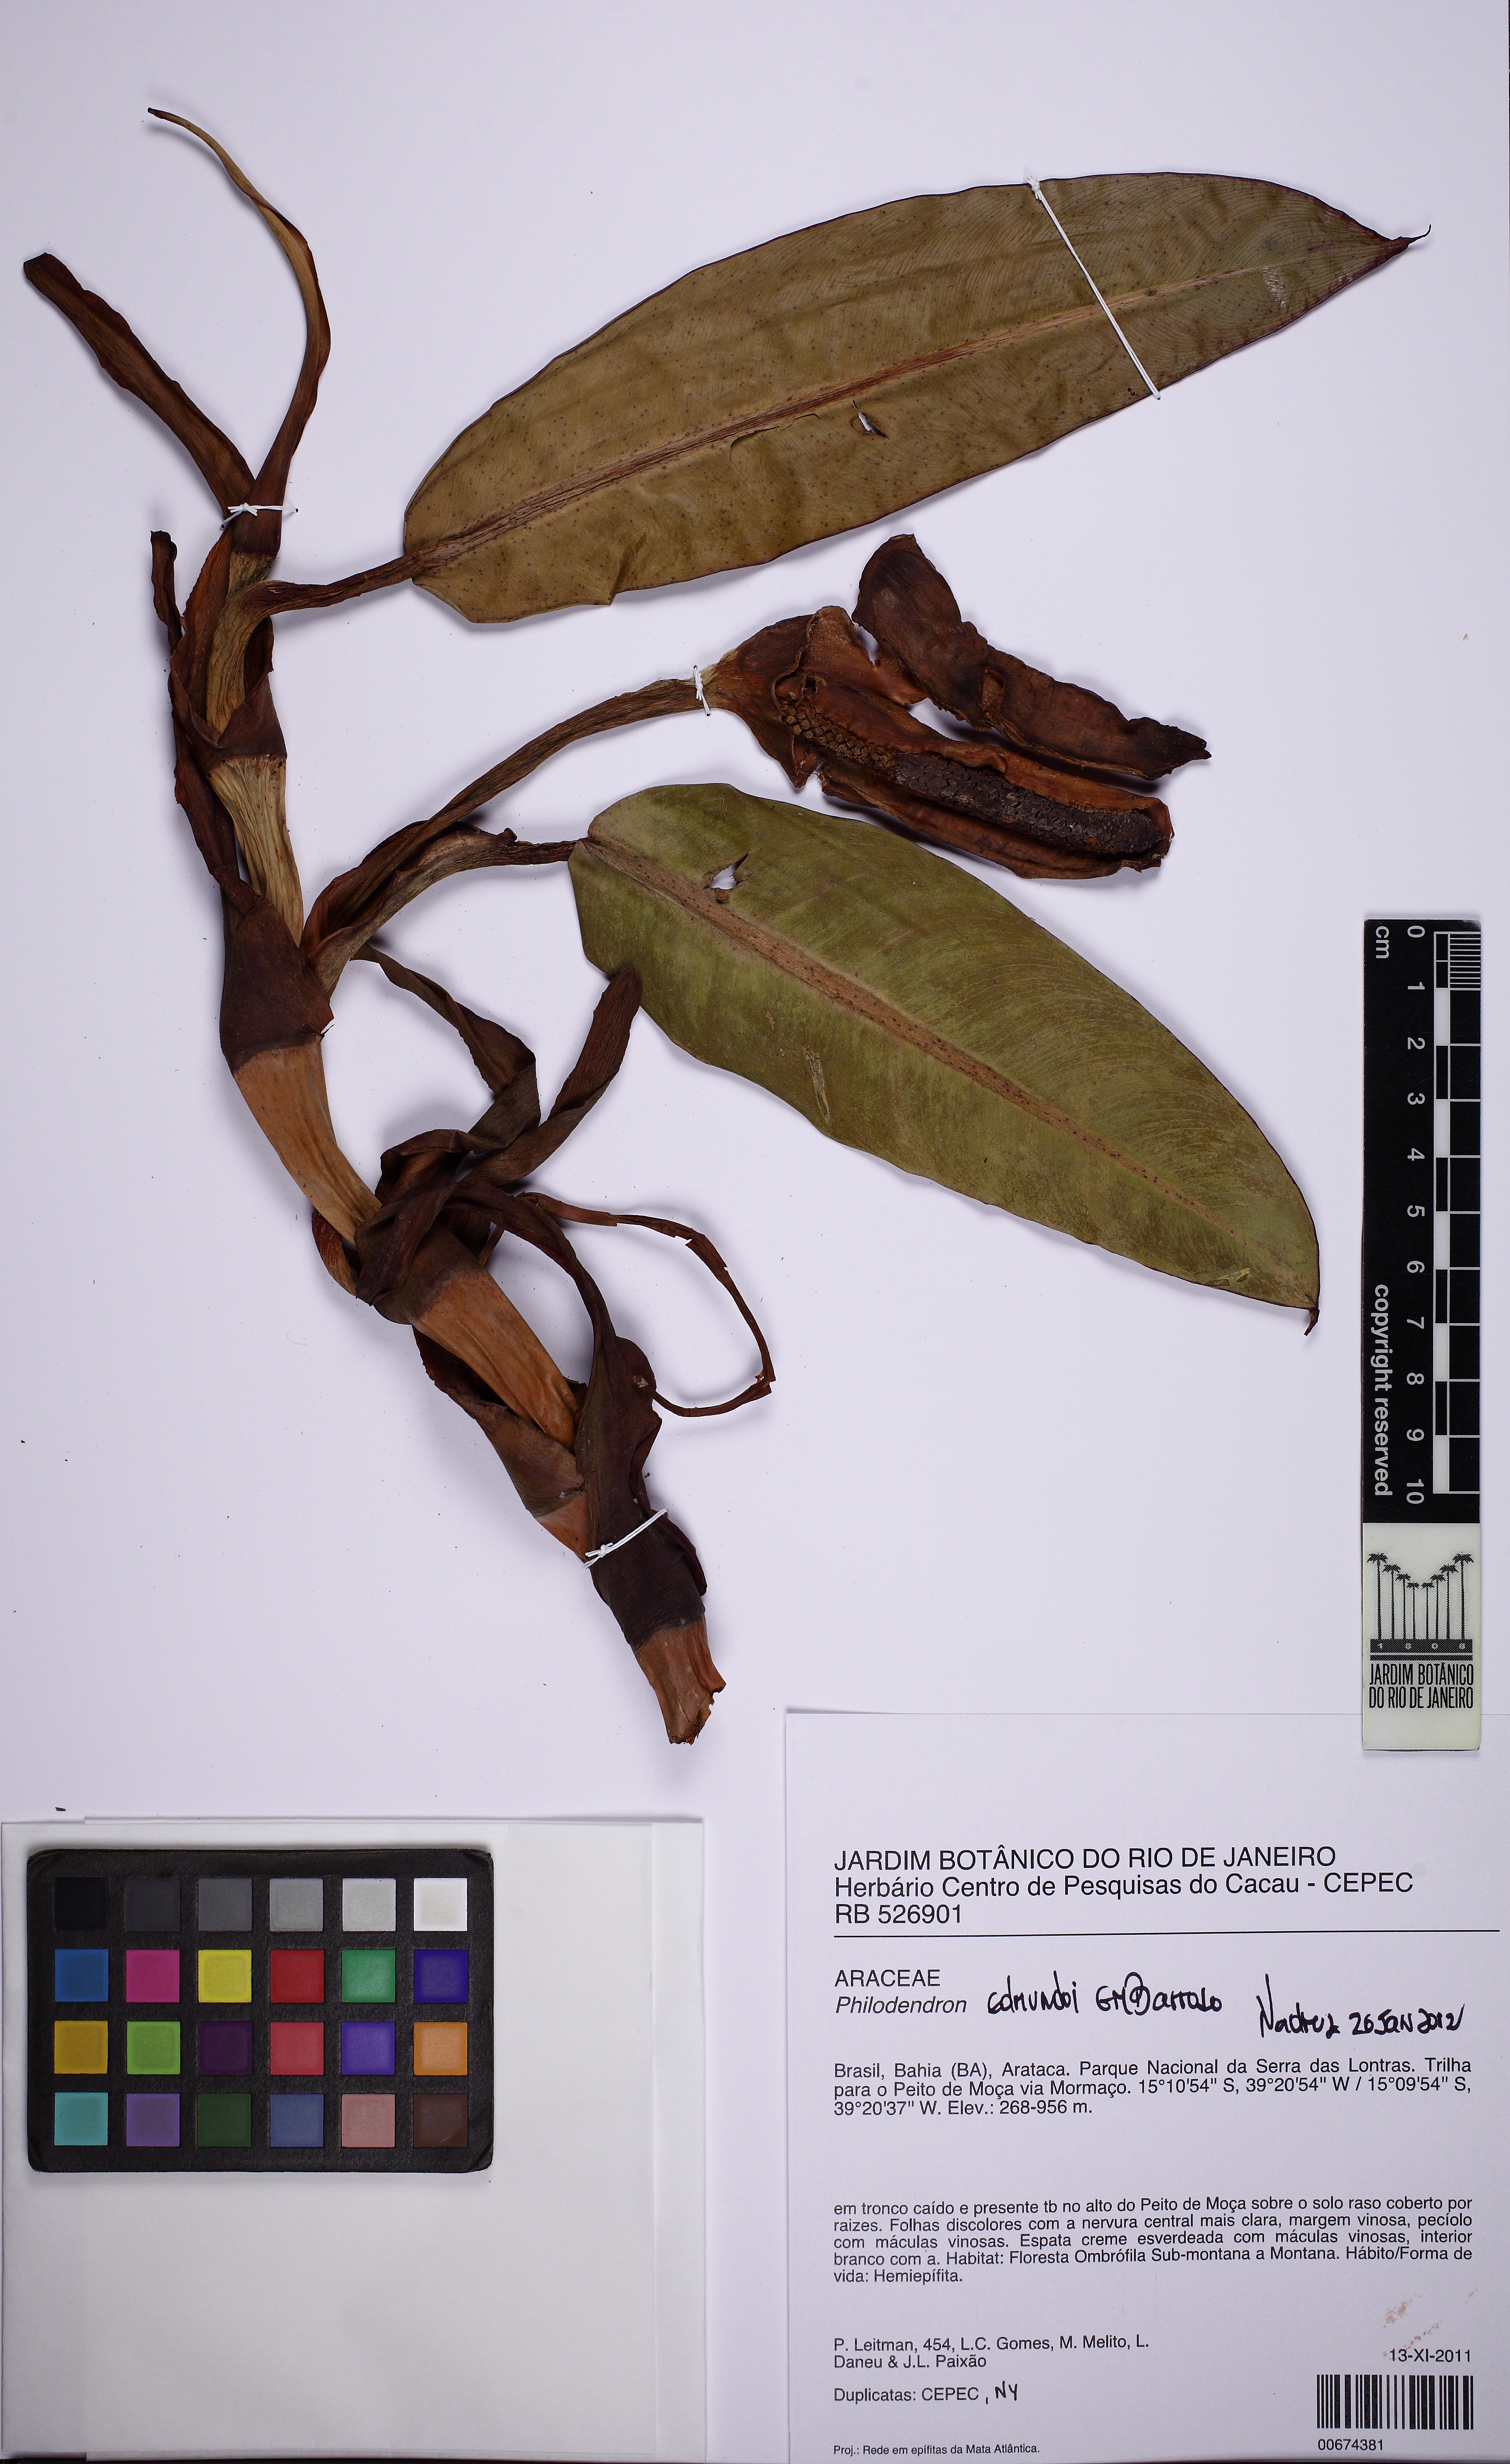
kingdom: Plantae
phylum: Tracheophyta
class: Liliopsida
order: Alismatales
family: Araceae
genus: Philodendron
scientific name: Philodendron edmundoi
